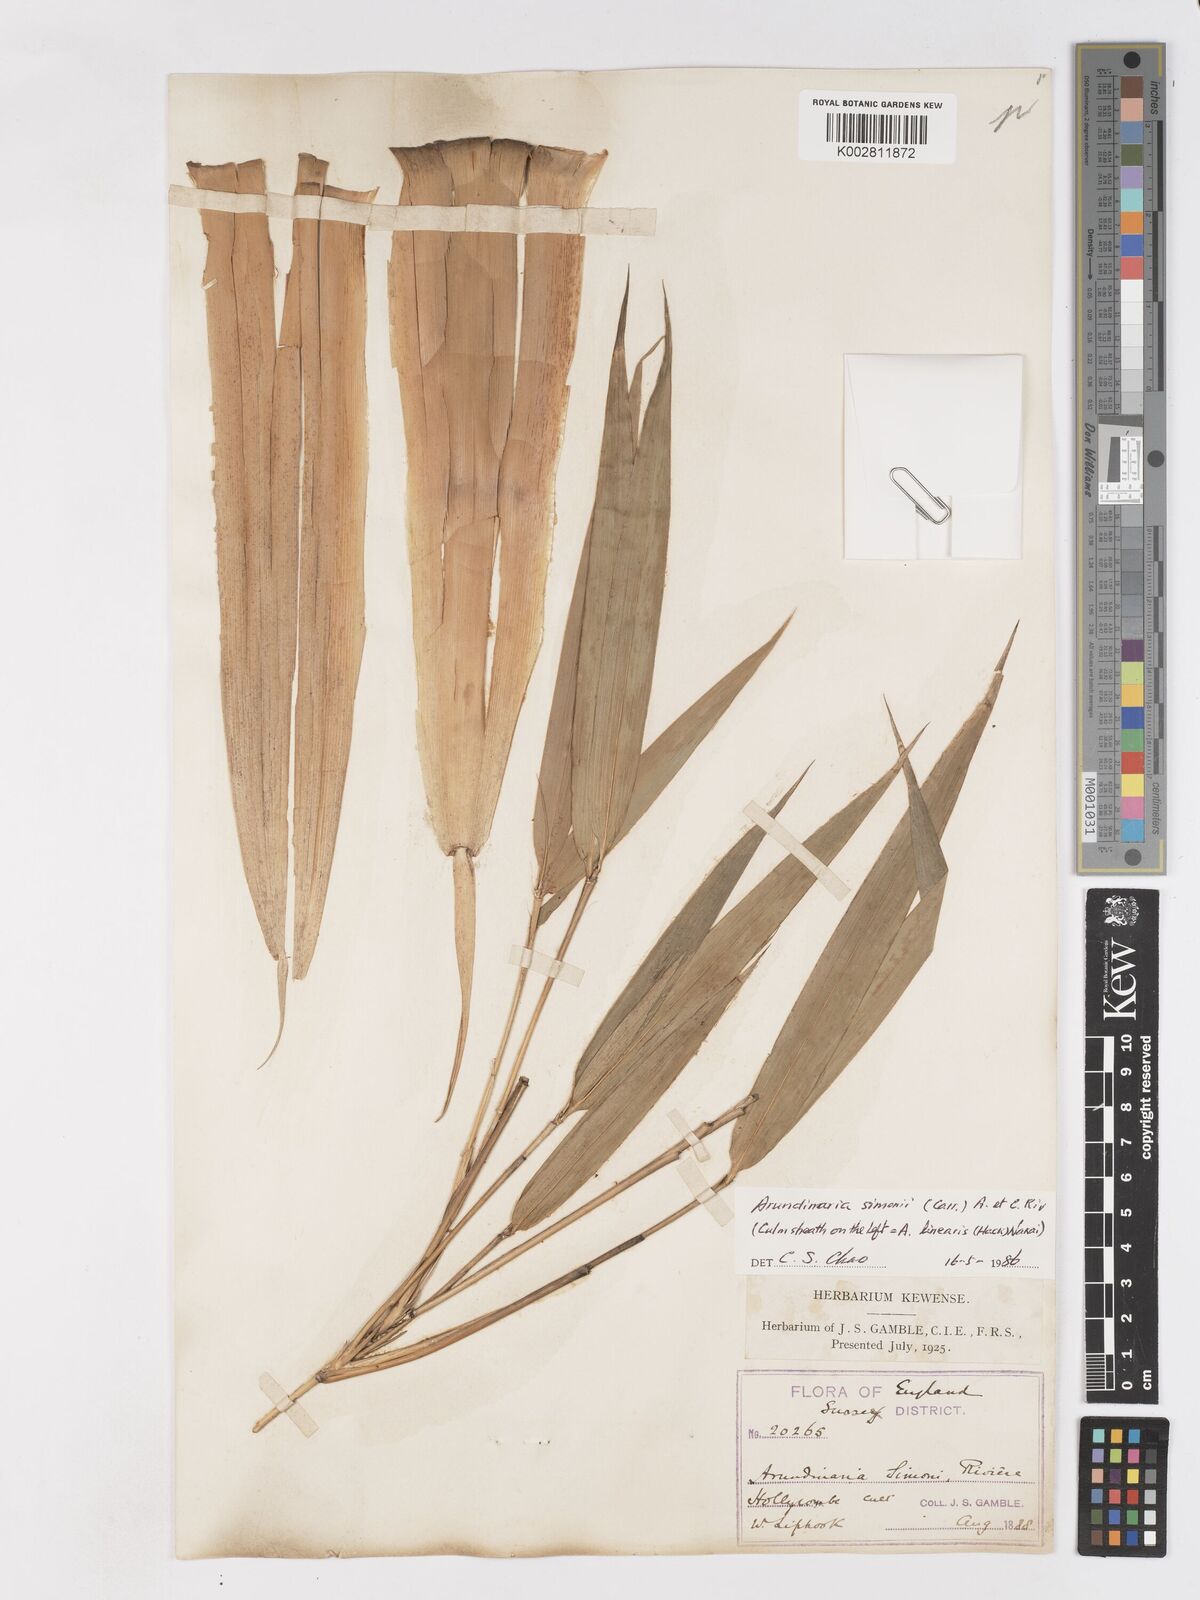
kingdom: Plantae
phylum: Tracheophyta
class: Liliopsida
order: Poales
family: Poaceae
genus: Pleioblastus
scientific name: Pleioblastus simonii
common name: Simon bamboo
